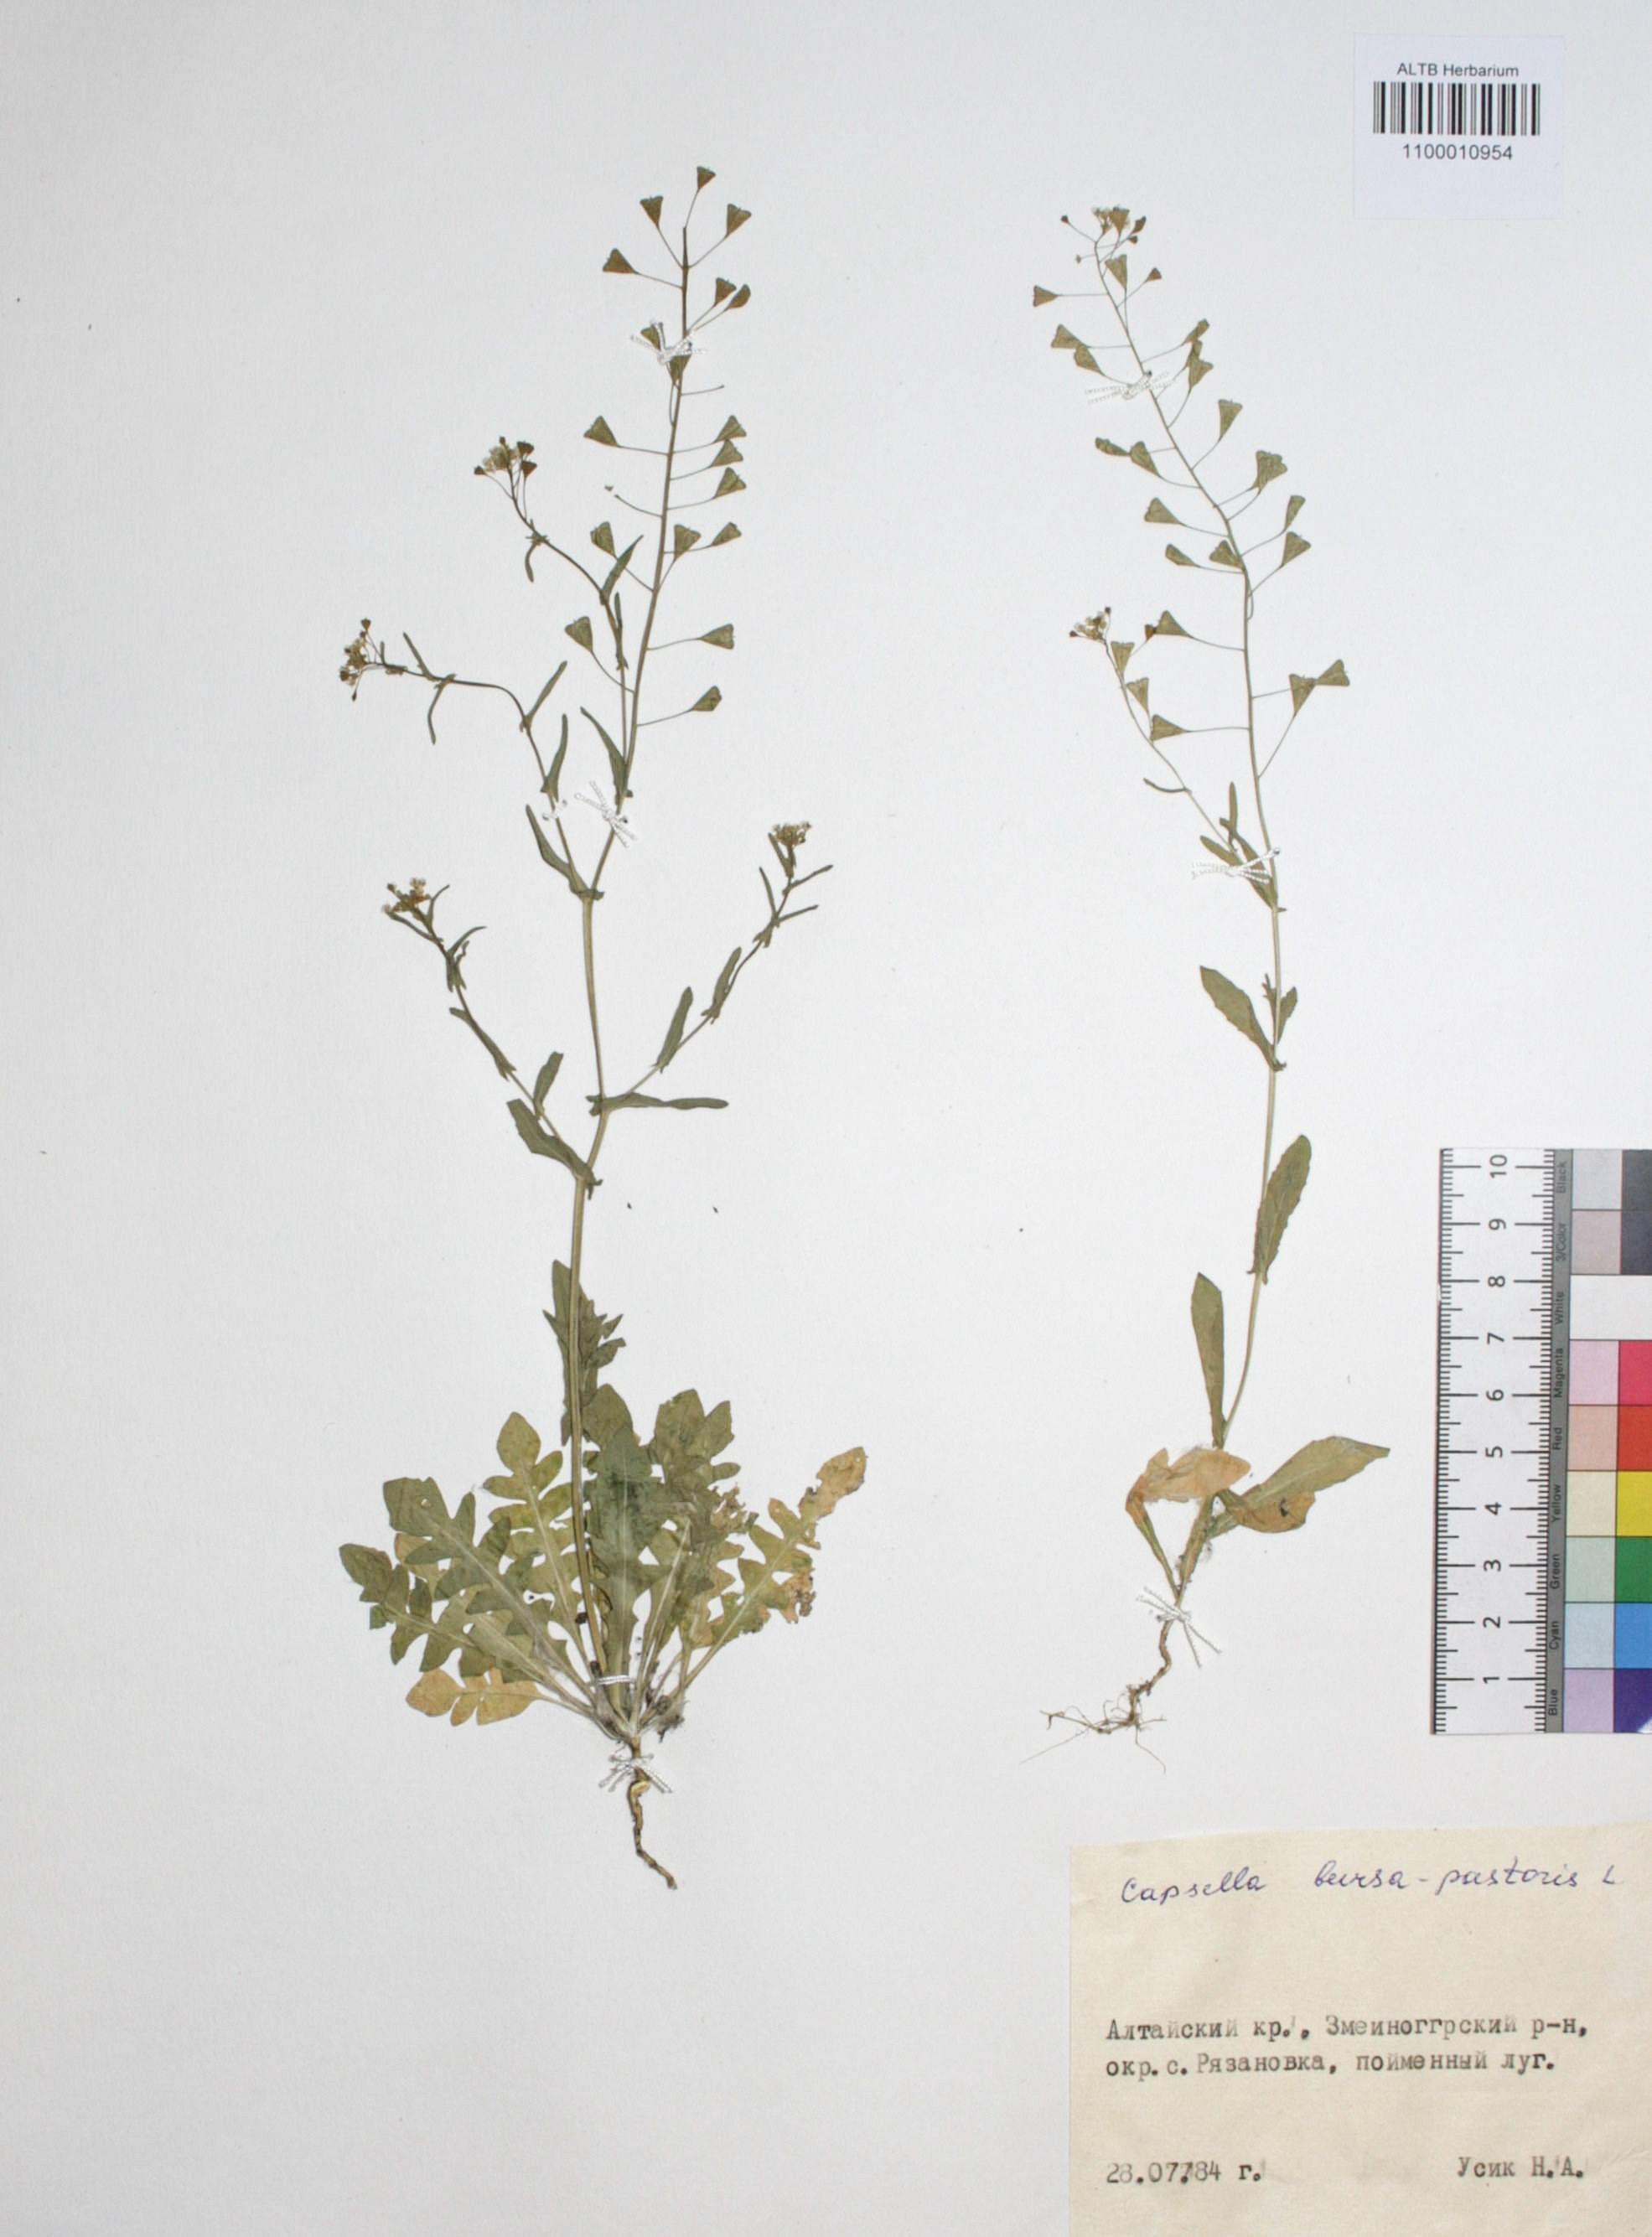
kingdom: Plantae
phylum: Tracheophyta
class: Magnoliopsida
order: Brassicales
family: Brassicaceae
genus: Capsella
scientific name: Capsella bursa-pastoris
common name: Shepherd's purse
